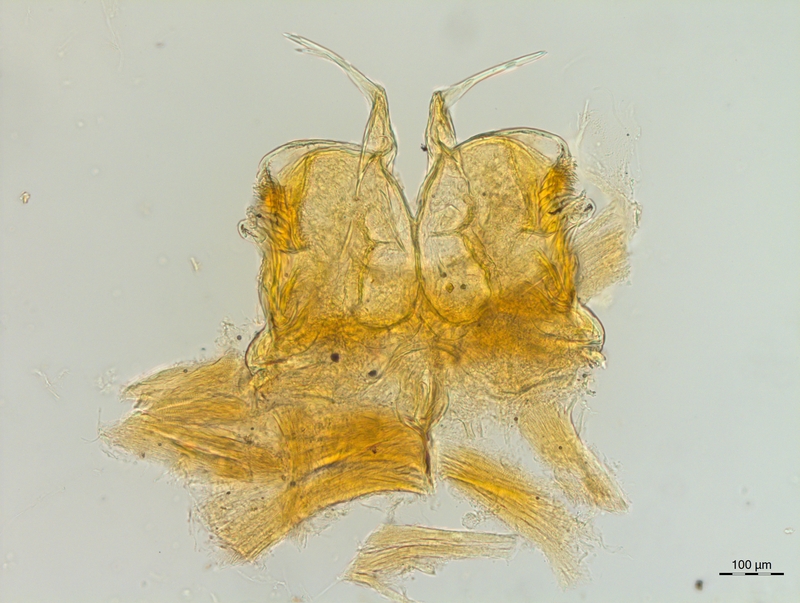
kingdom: Animalia
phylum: Arthropoda
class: Diplopoda
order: Chordeumatida
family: Craspedosomatidae
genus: Craspedosoma
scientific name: Craspedosoma rawlinsii
